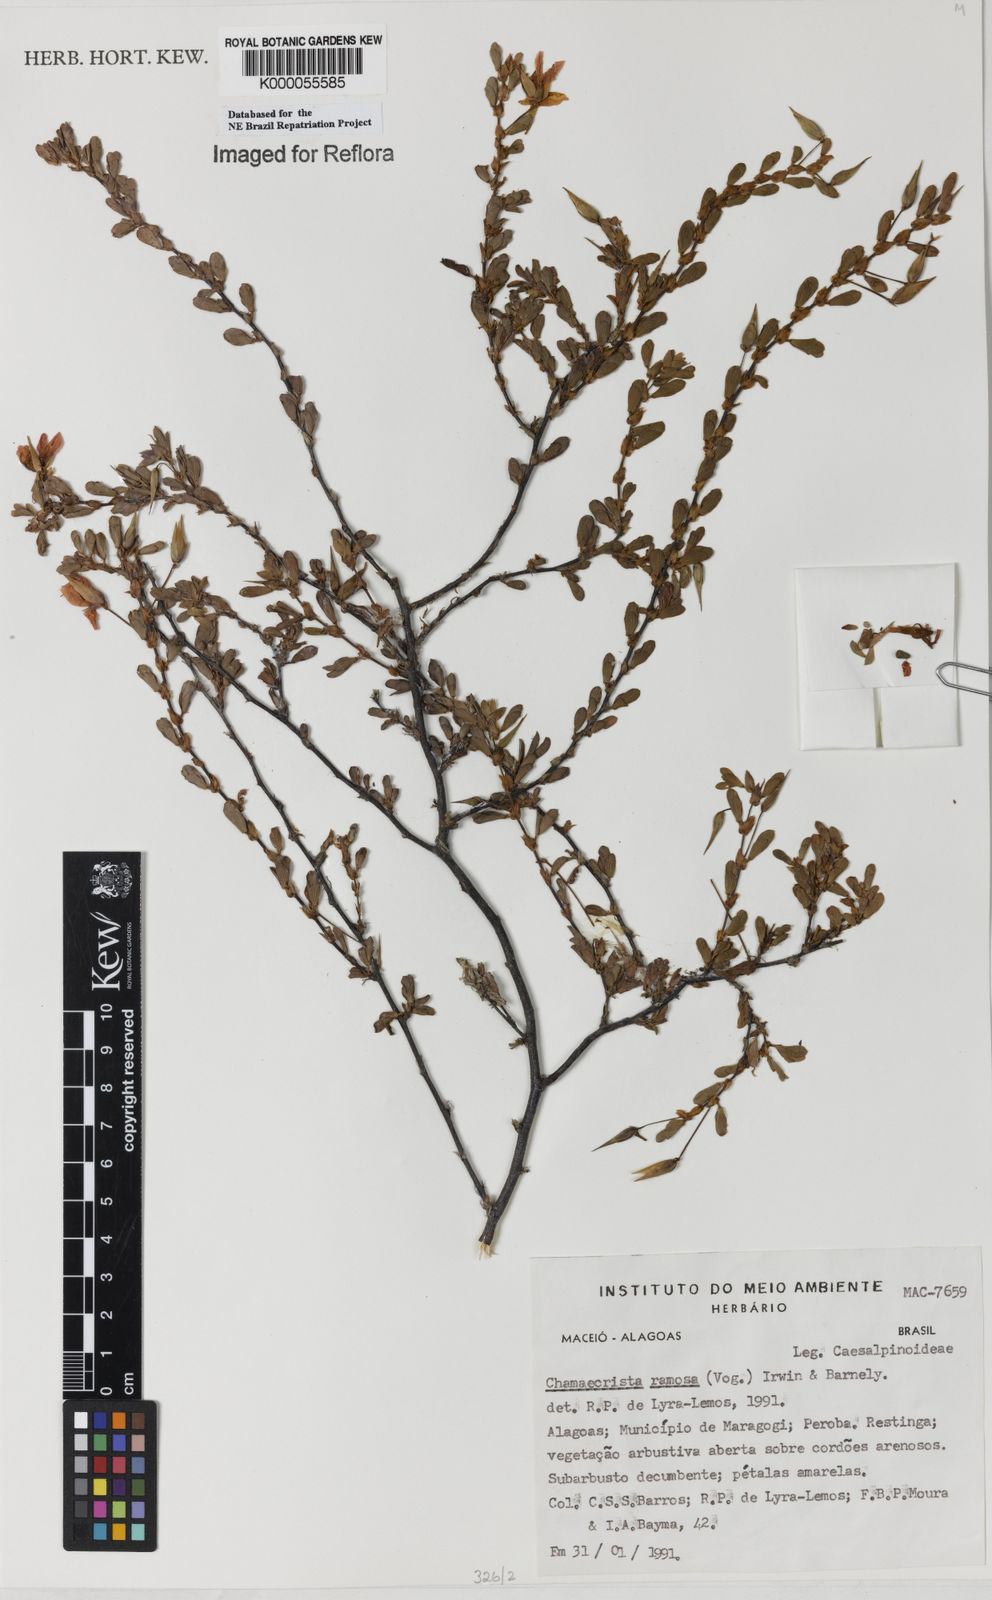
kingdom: Plantae
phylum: Tracheophyta
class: Magnoliopsida
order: Fabales
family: Fabaceae
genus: Chamaecrista
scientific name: Chamaecrista ramosa
